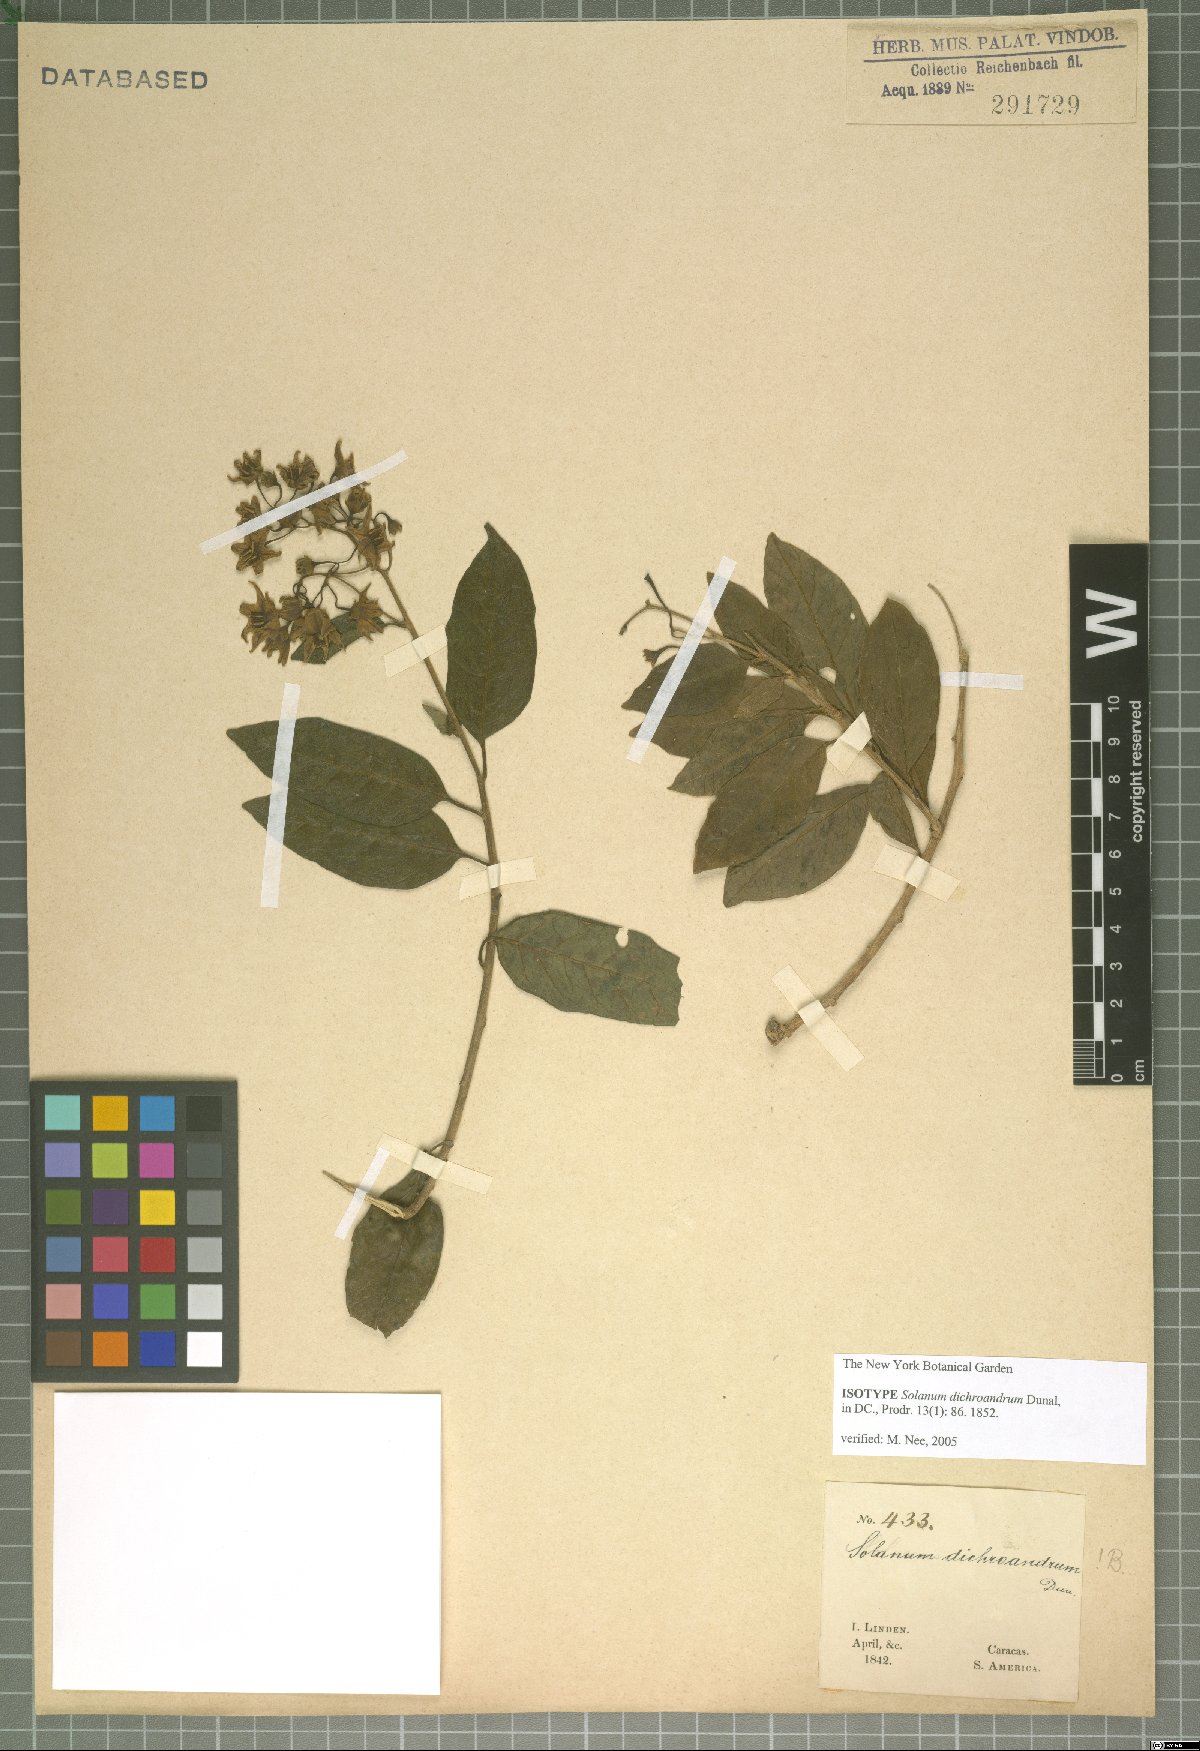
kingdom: Plantae
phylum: Tracheophyta
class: Magnoliopsida
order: Solanales
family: Solanaceae
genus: Solanum
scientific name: Solanum dichroandrum
